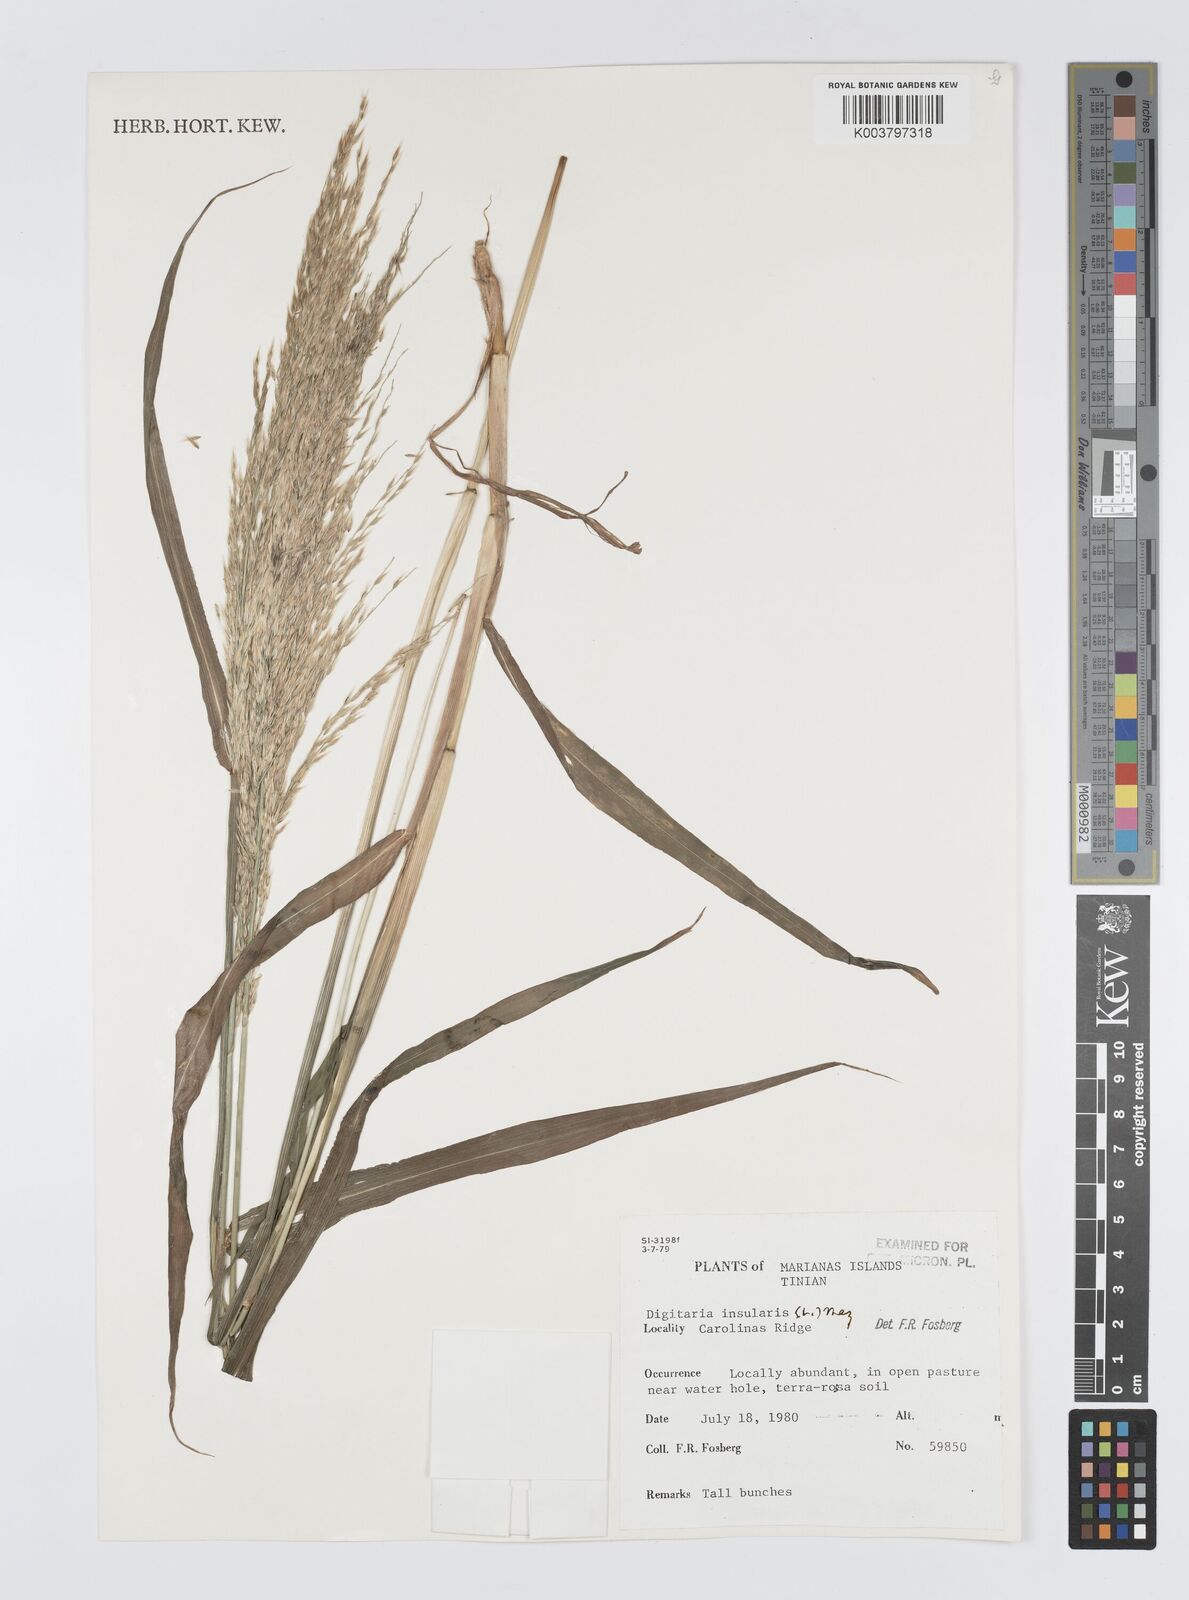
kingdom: Plantae
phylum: Tracheophyta
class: Liliopsida
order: Poales
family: Poaceae
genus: Digitaria
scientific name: Digitaria insularis
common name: Sourgrass
